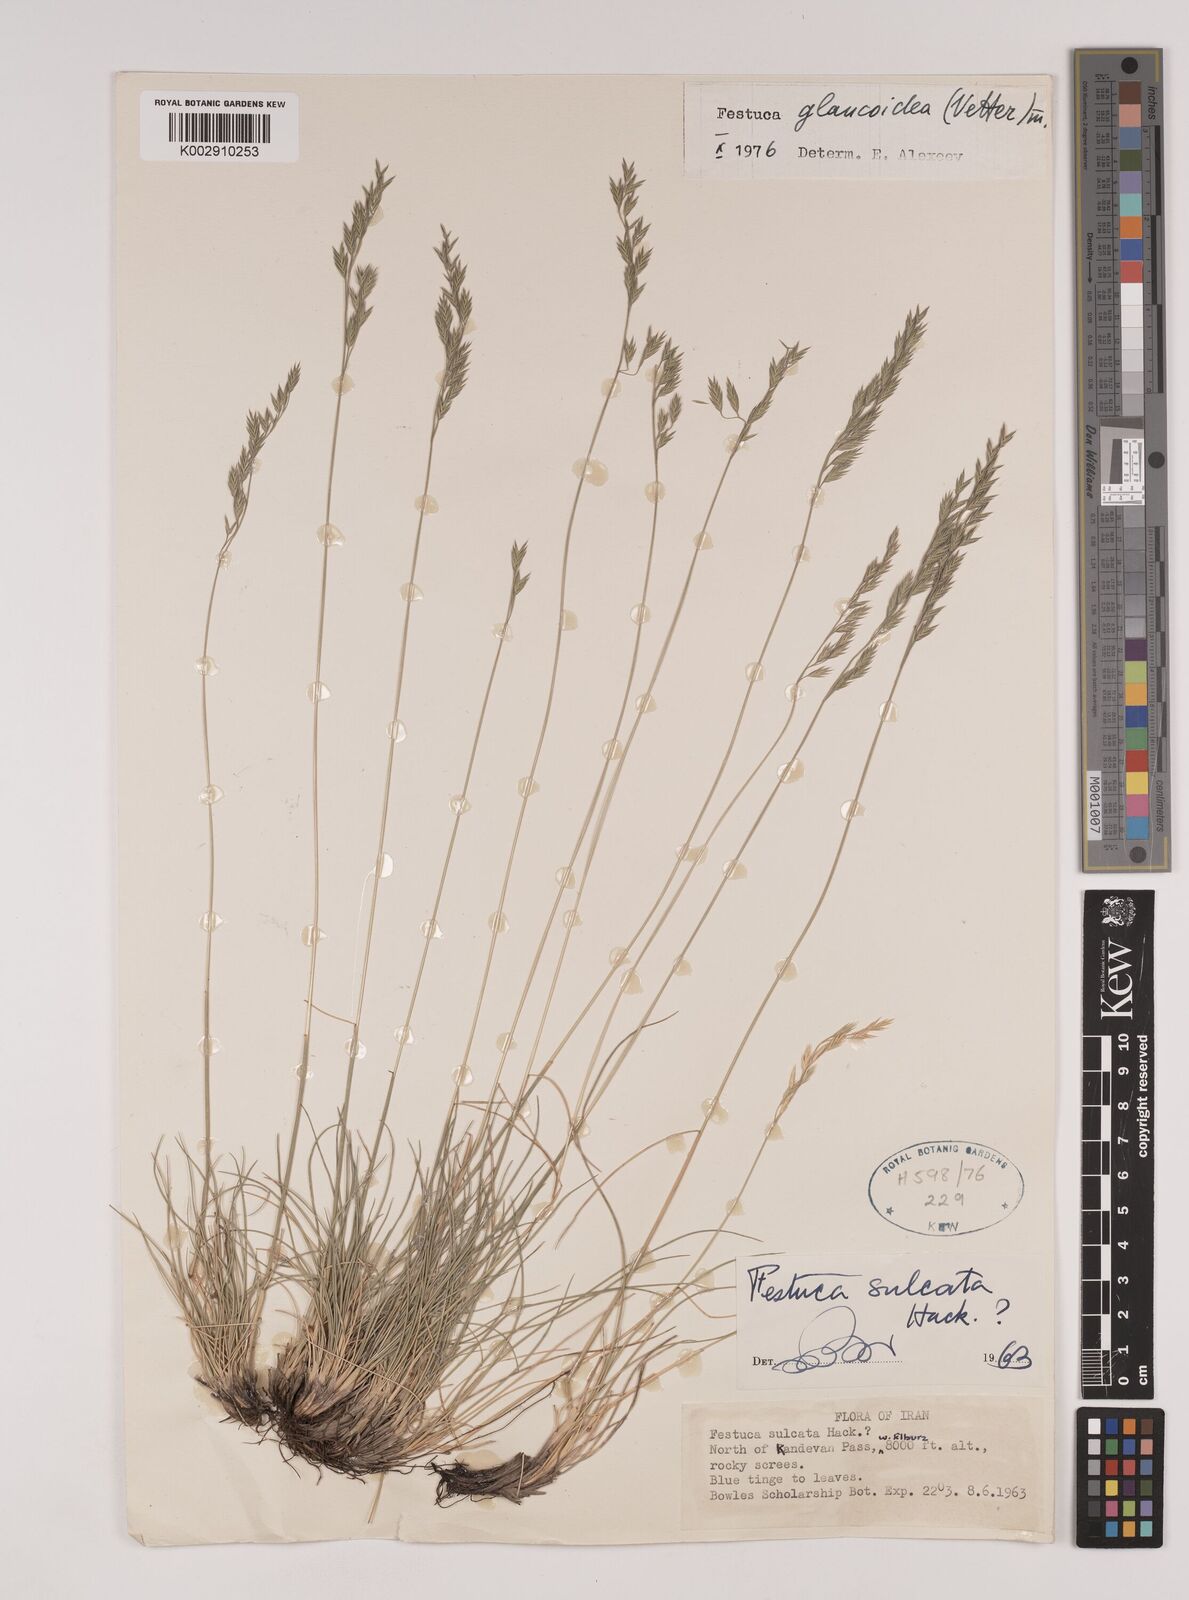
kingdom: Plantae
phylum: Tracheophyta
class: Liliopsida
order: Poales
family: Poaceae
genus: Festuca
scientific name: Festuca ovina
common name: Sheep fescue
